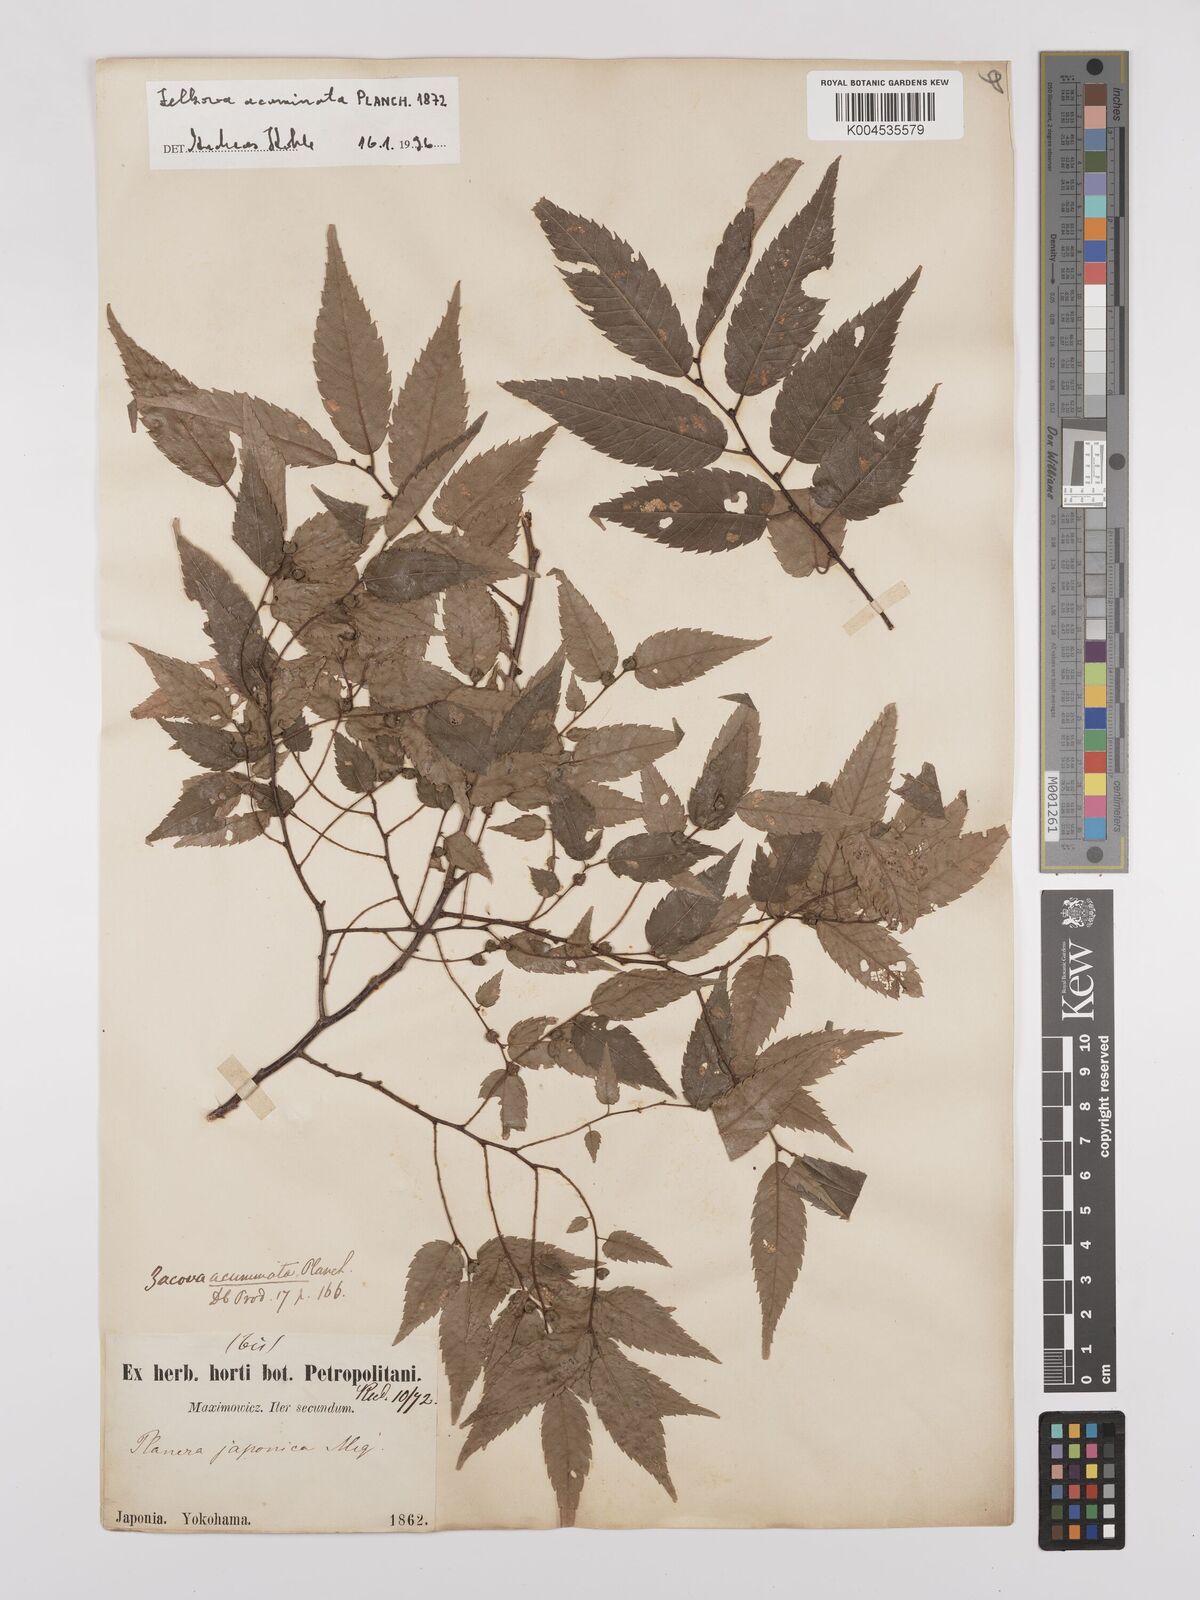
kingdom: Plantae
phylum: Tracheophyta
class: Magnoliopsida
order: Rosales
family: Ulmaceae
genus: Zelkova
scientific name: Zelkova serrata
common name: Japanese zelkova
